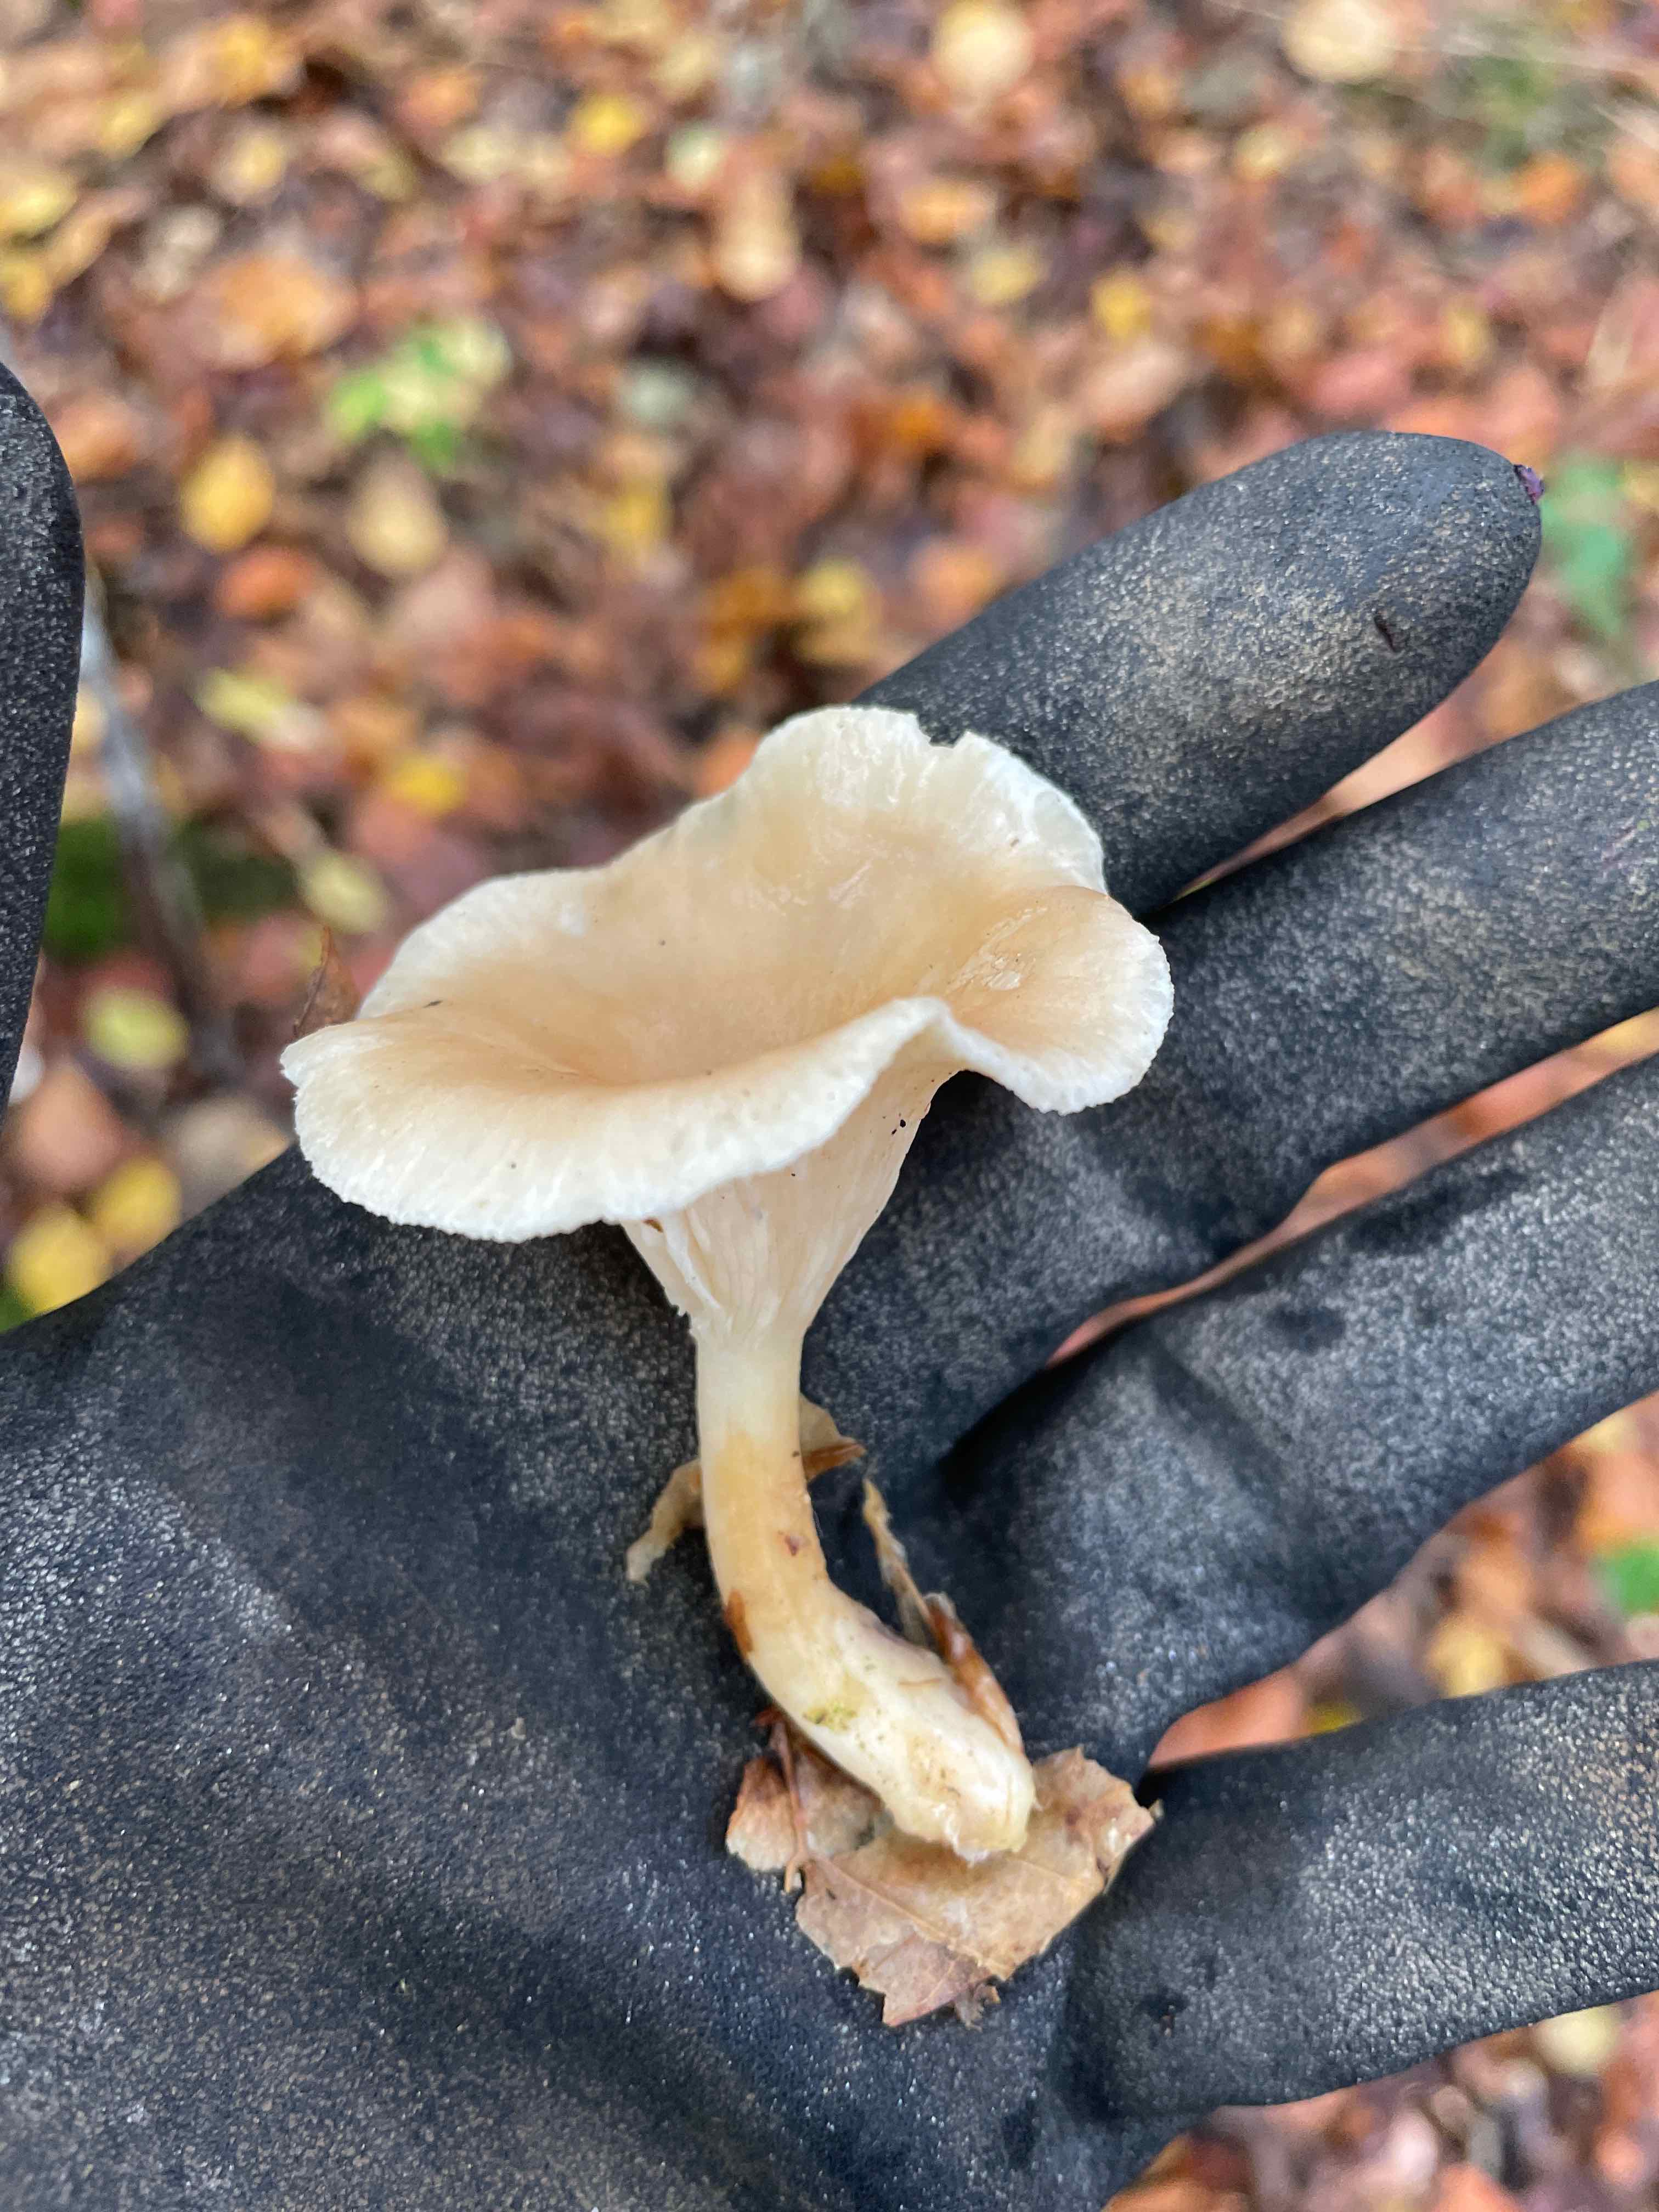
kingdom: Fungi
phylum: Basidiomycota
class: Agaricomycetes
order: Agaricales
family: Tricholomataceae
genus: Infundibulicybe
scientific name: Infundibulicybe gibba
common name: almindelig tragthat
